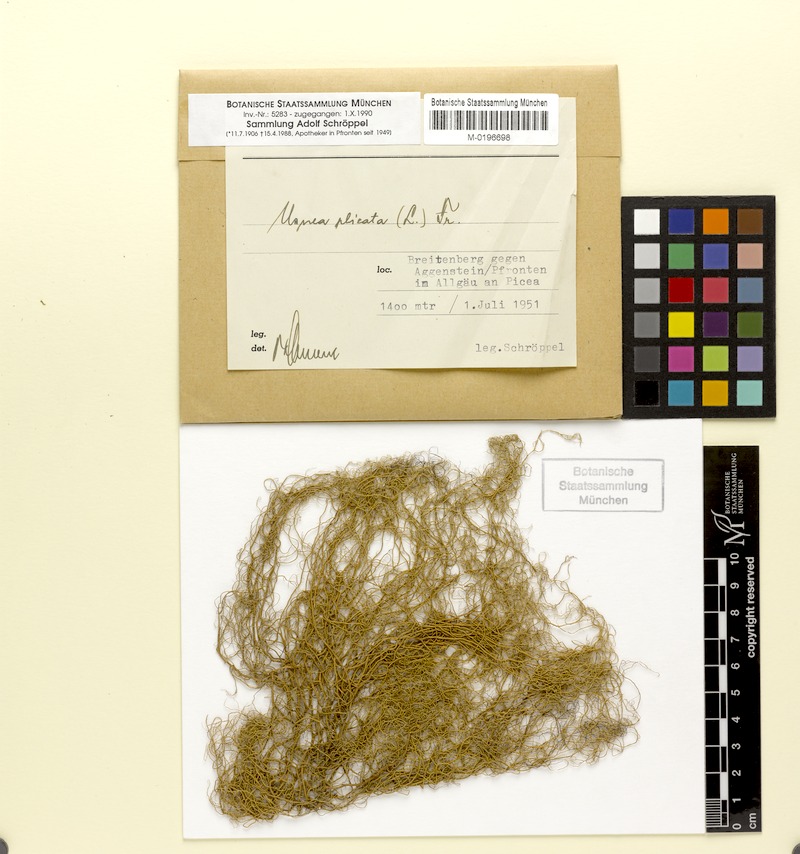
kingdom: Fungi
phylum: Ascomycota
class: Lecanoromycetes
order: Lecanorales
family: Parmeliaceae
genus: Usnea
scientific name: Usnea plicata
